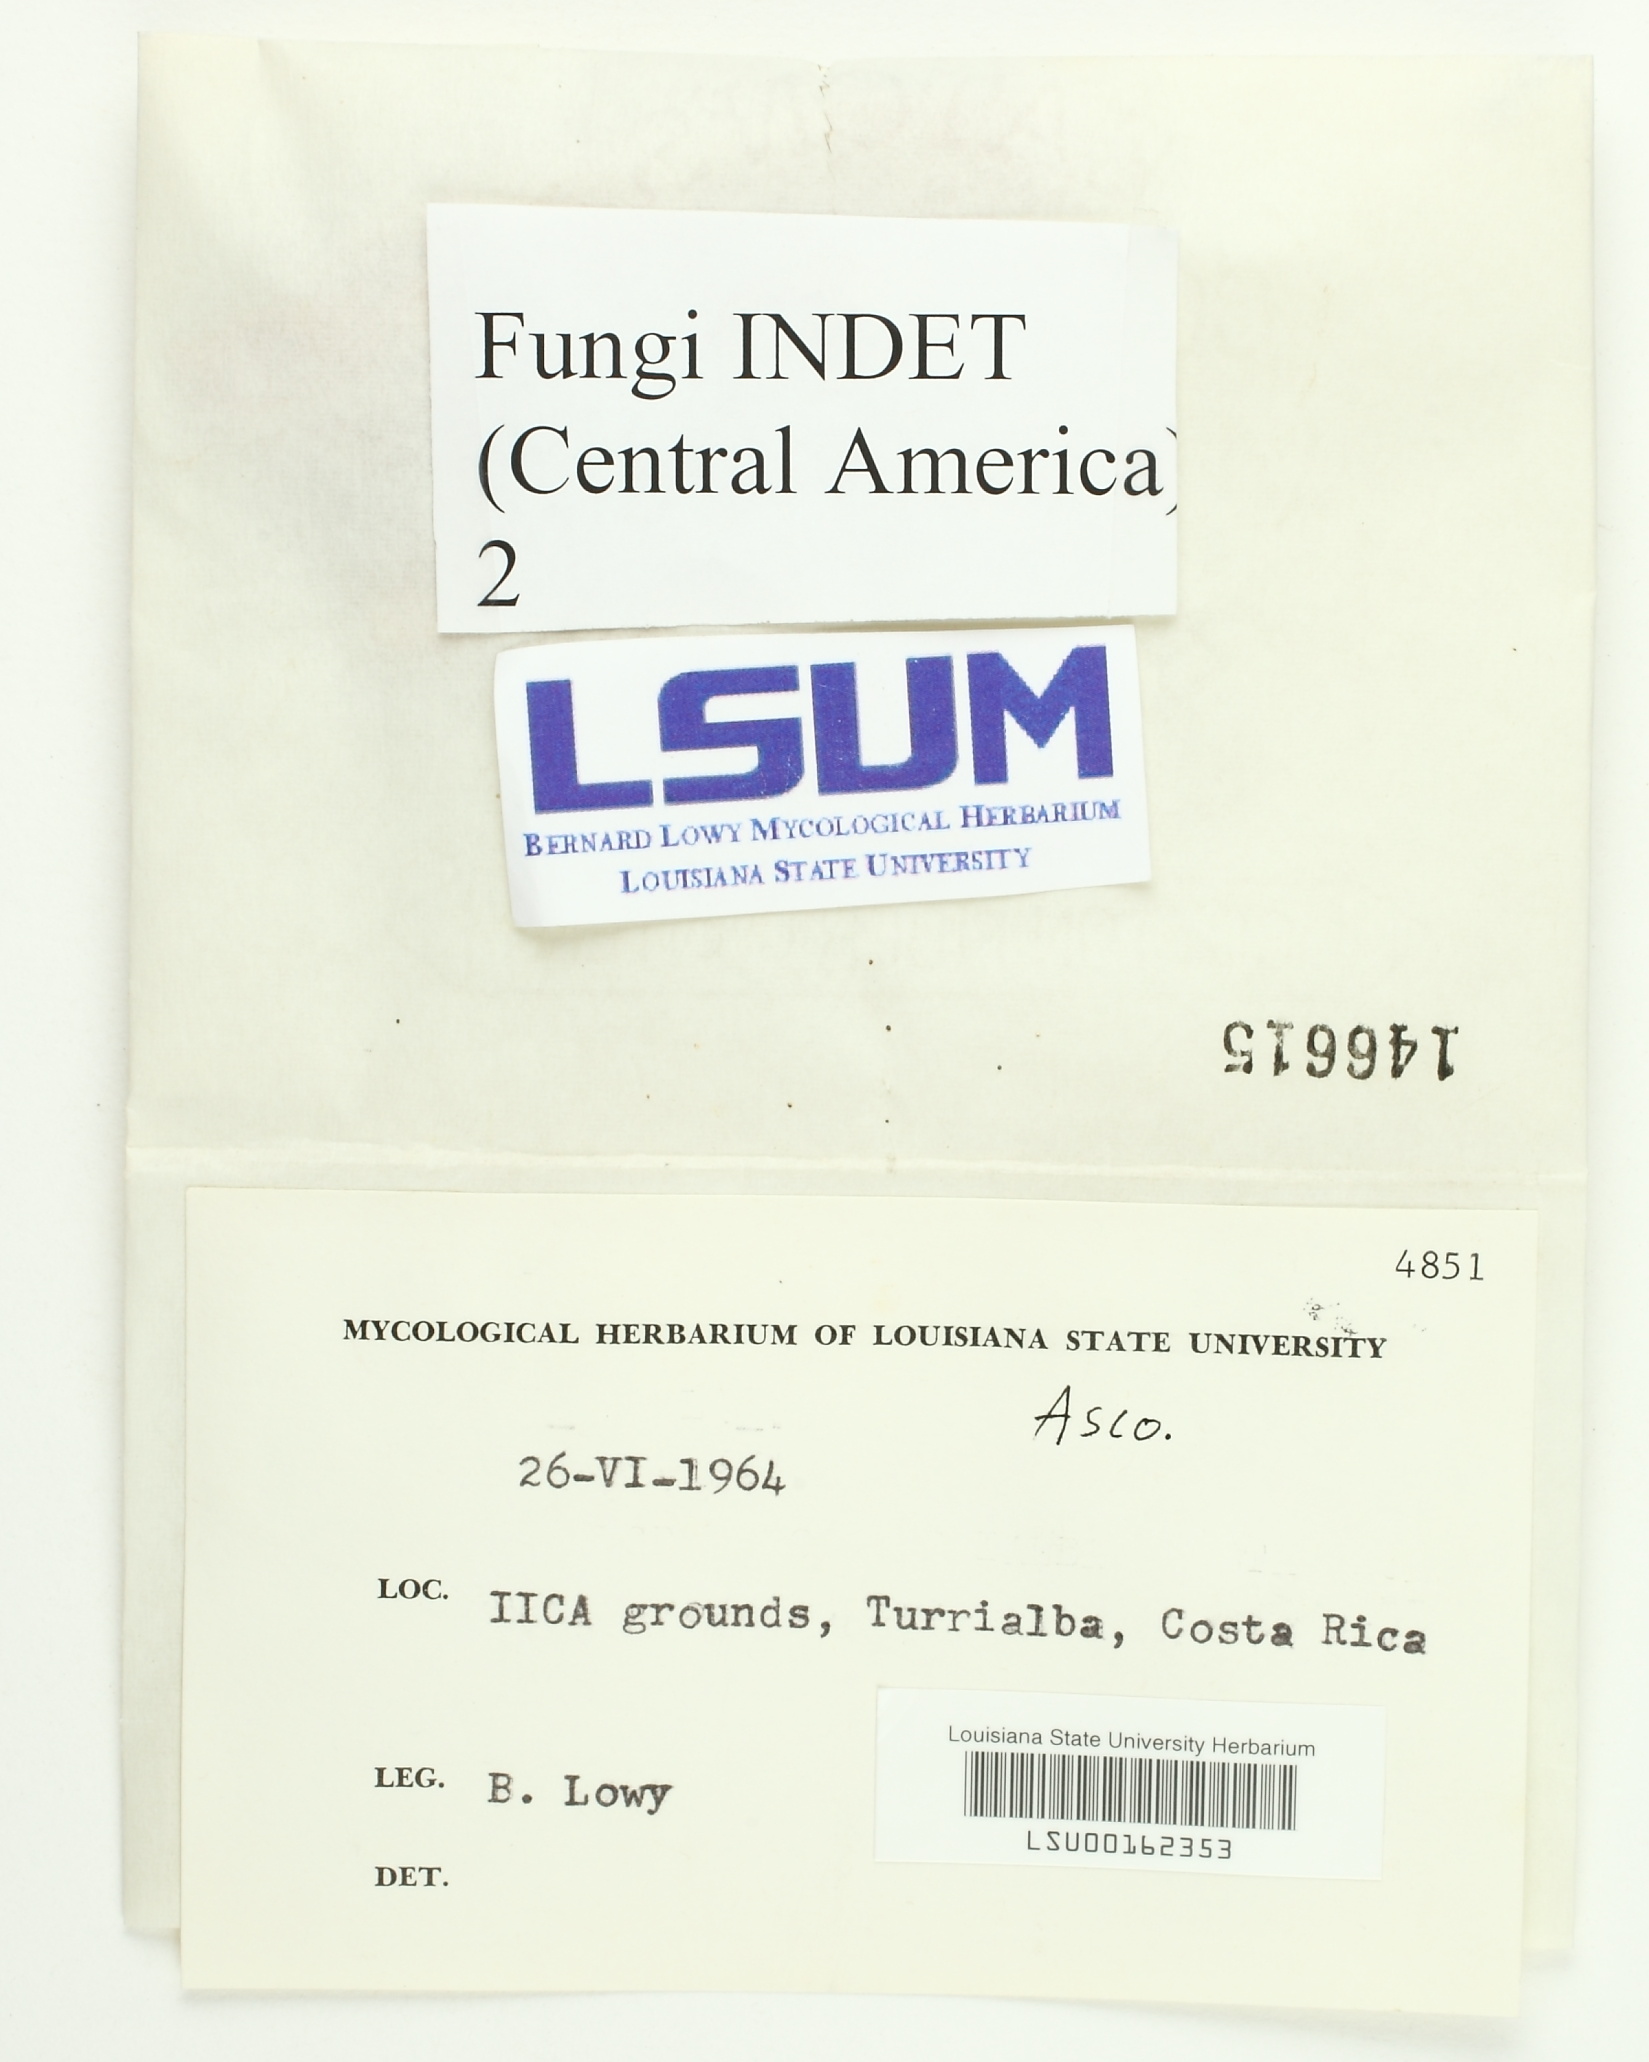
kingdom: Fungi
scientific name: Fungi
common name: Fungi
